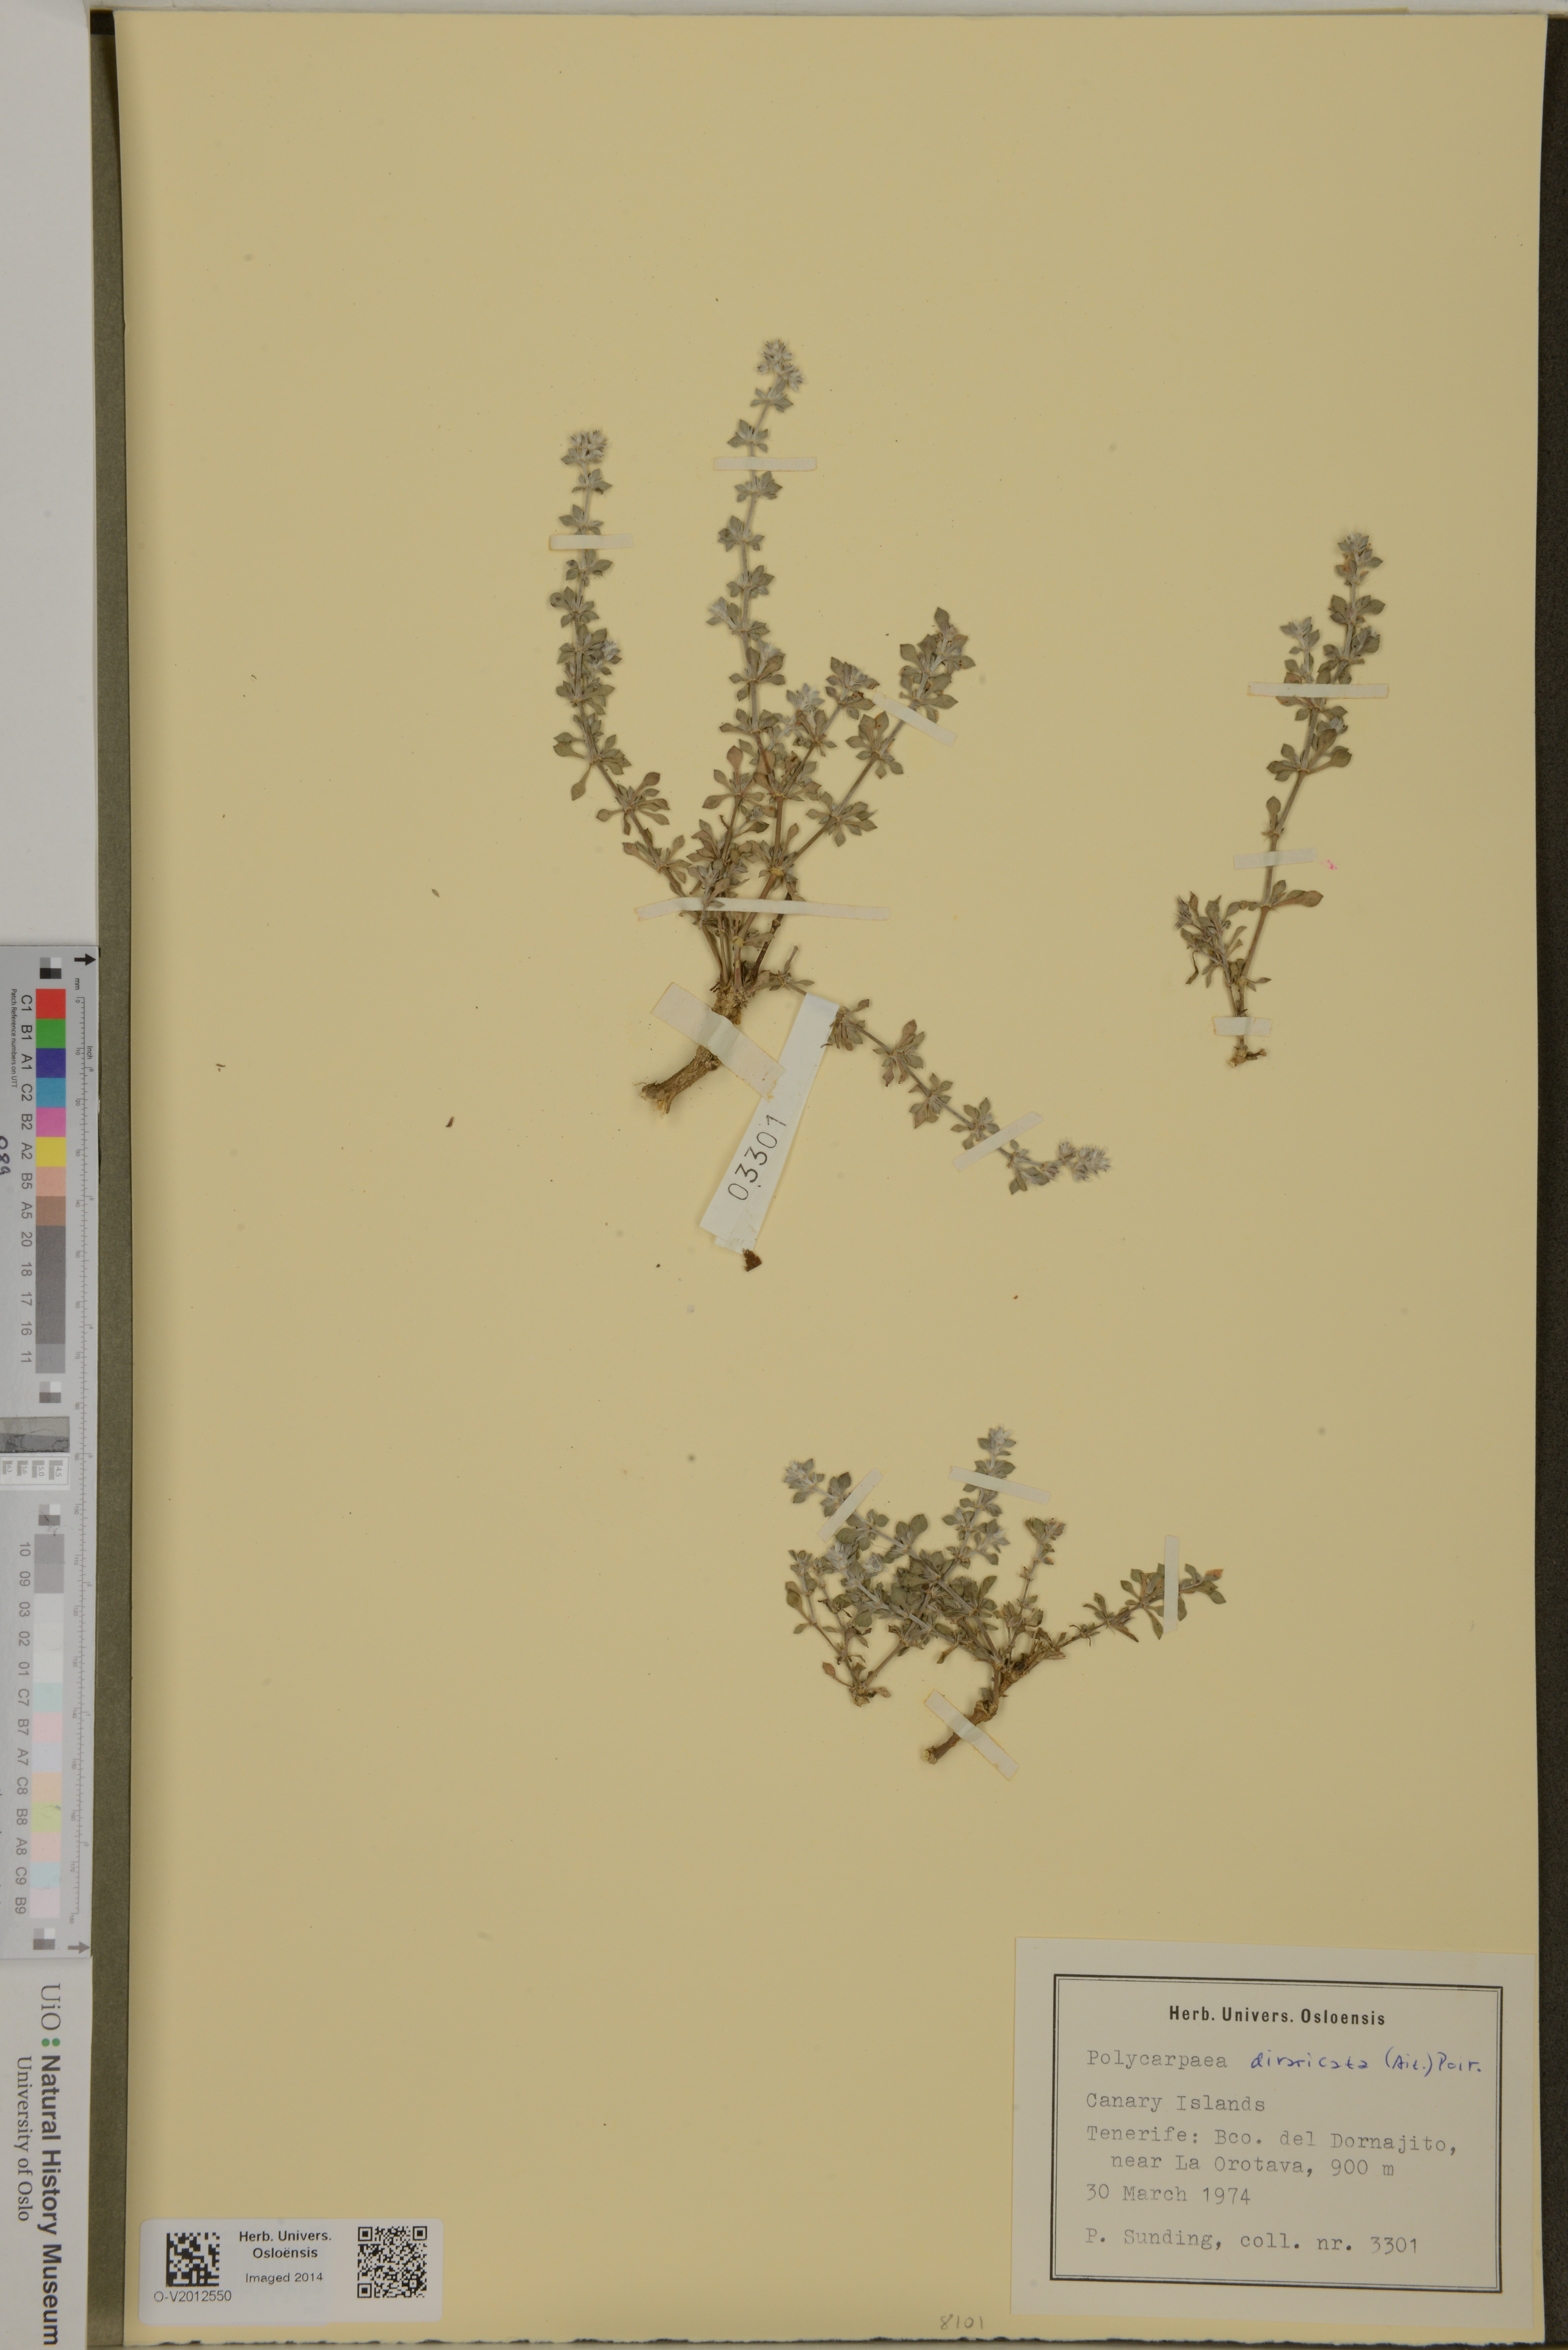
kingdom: Plantae
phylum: Tracheophyta
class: Magnoliopsida
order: Caryophyllales
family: Caryophyllaceae
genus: Polycarpaea
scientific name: Polycarpaea divaricata
